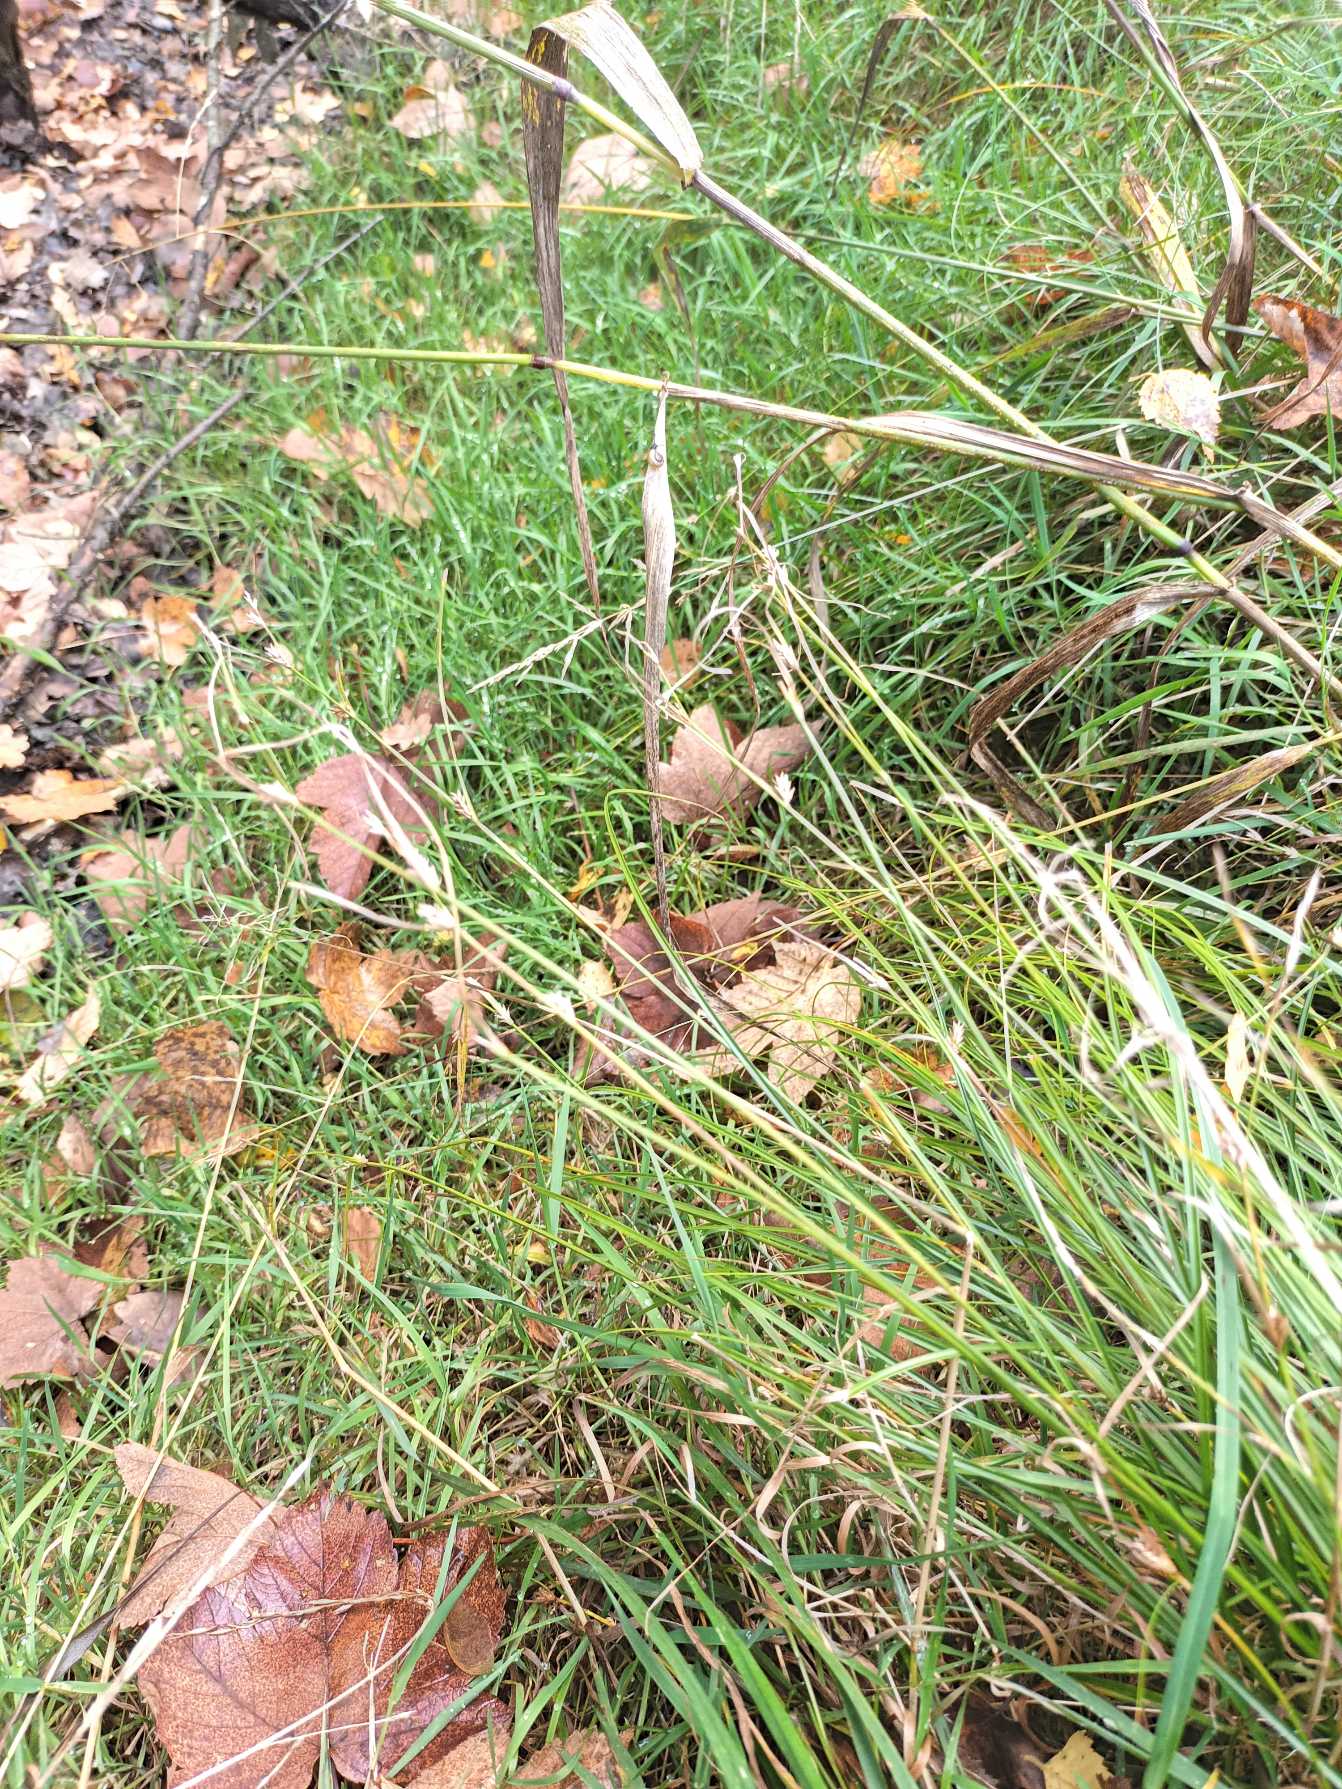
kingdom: Plantae
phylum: Tracheophyta
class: Liliopsida
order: Poales
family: Cyperaceae
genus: Carex
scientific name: Carex remota
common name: Akselblomstret star
